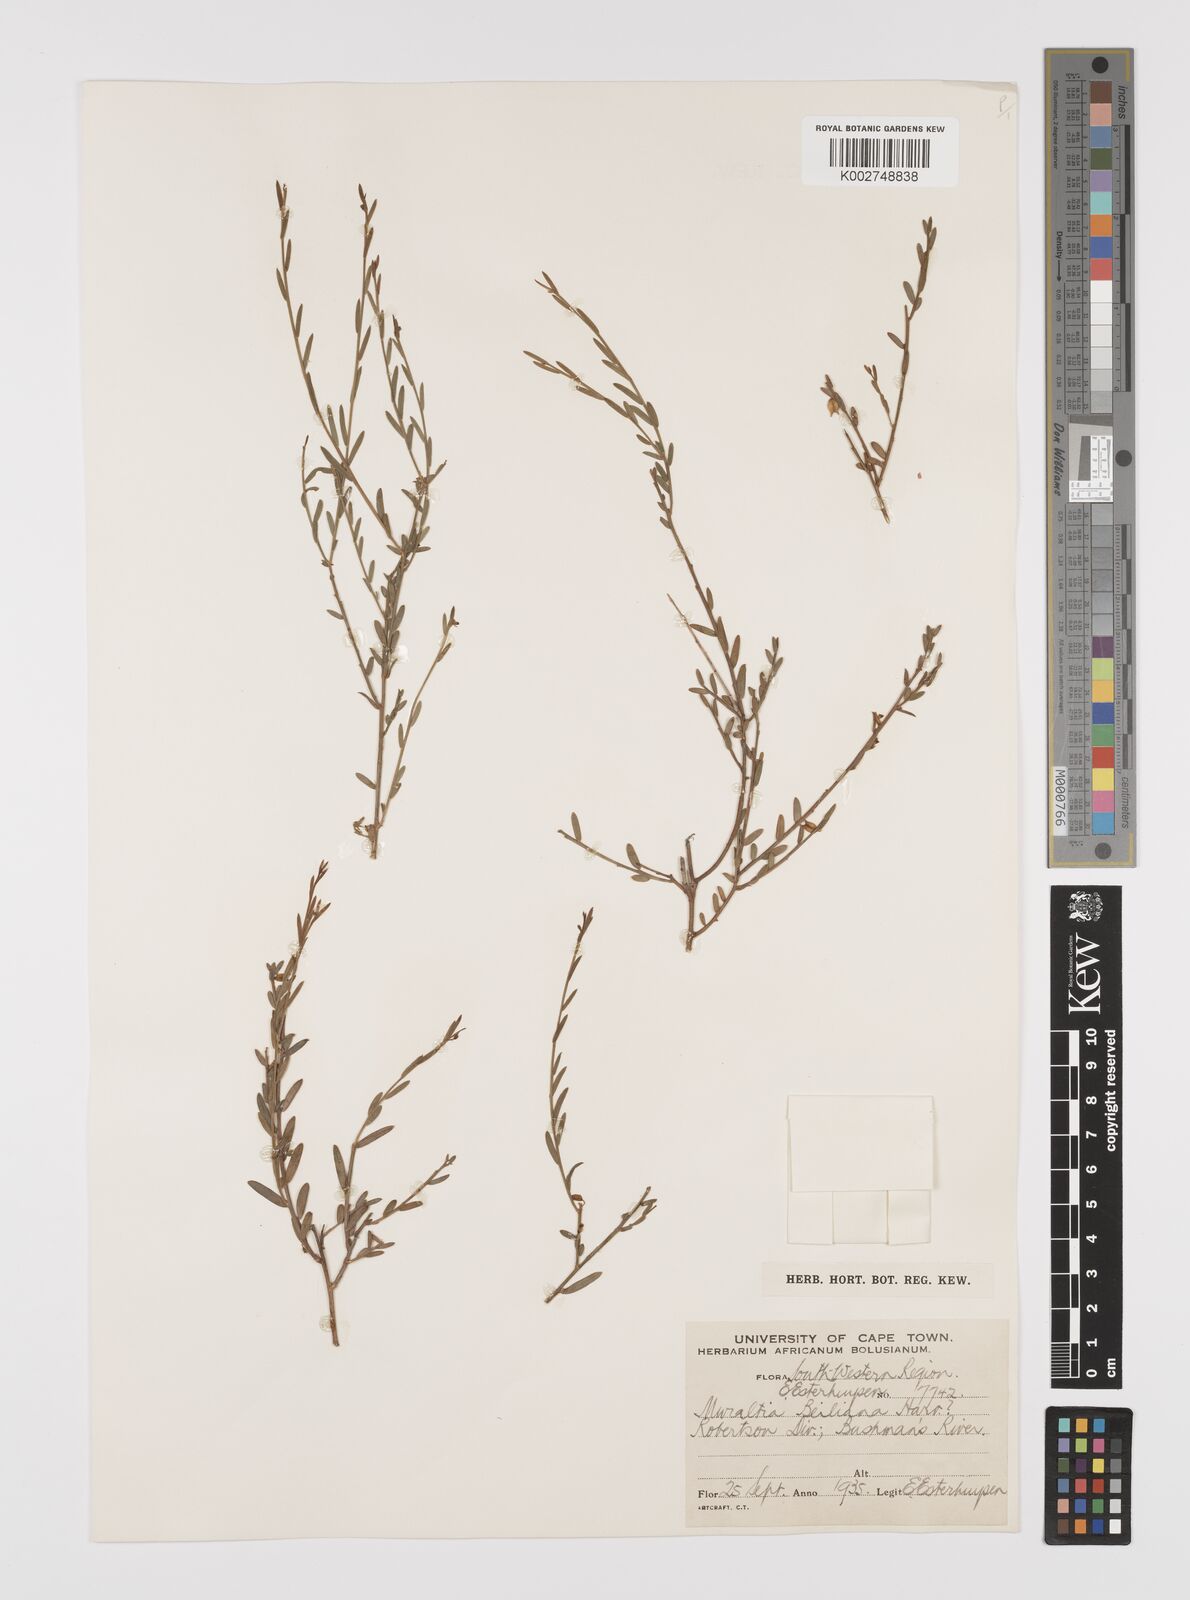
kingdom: Plantae
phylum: Tracheophyta
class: Magnoliopsida
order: Fabales
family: Polygalaceae
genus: Muraltia
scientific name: Muraltia muraltioides
